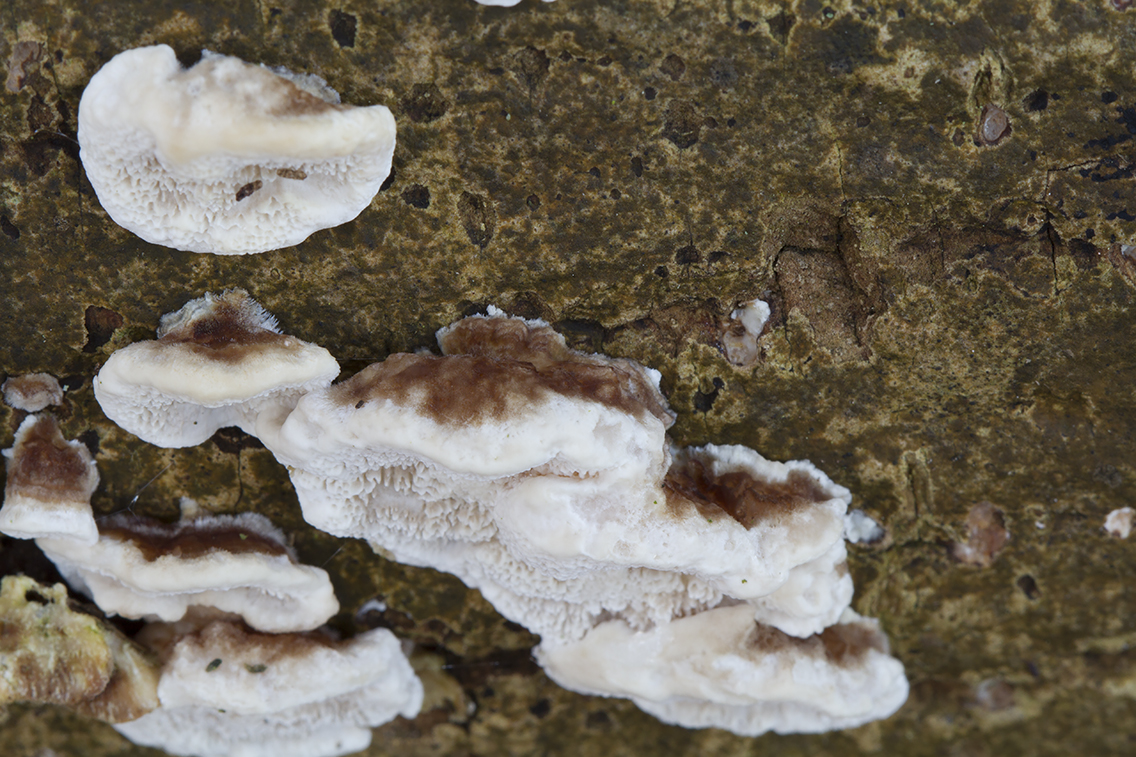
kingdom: Fungi
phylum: Basidiomycota
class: Agaricomycetes
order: Polyporales
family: Polyporaceae
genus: Trametes
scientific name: Trametes versicolor
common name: broget læderporesvamp
